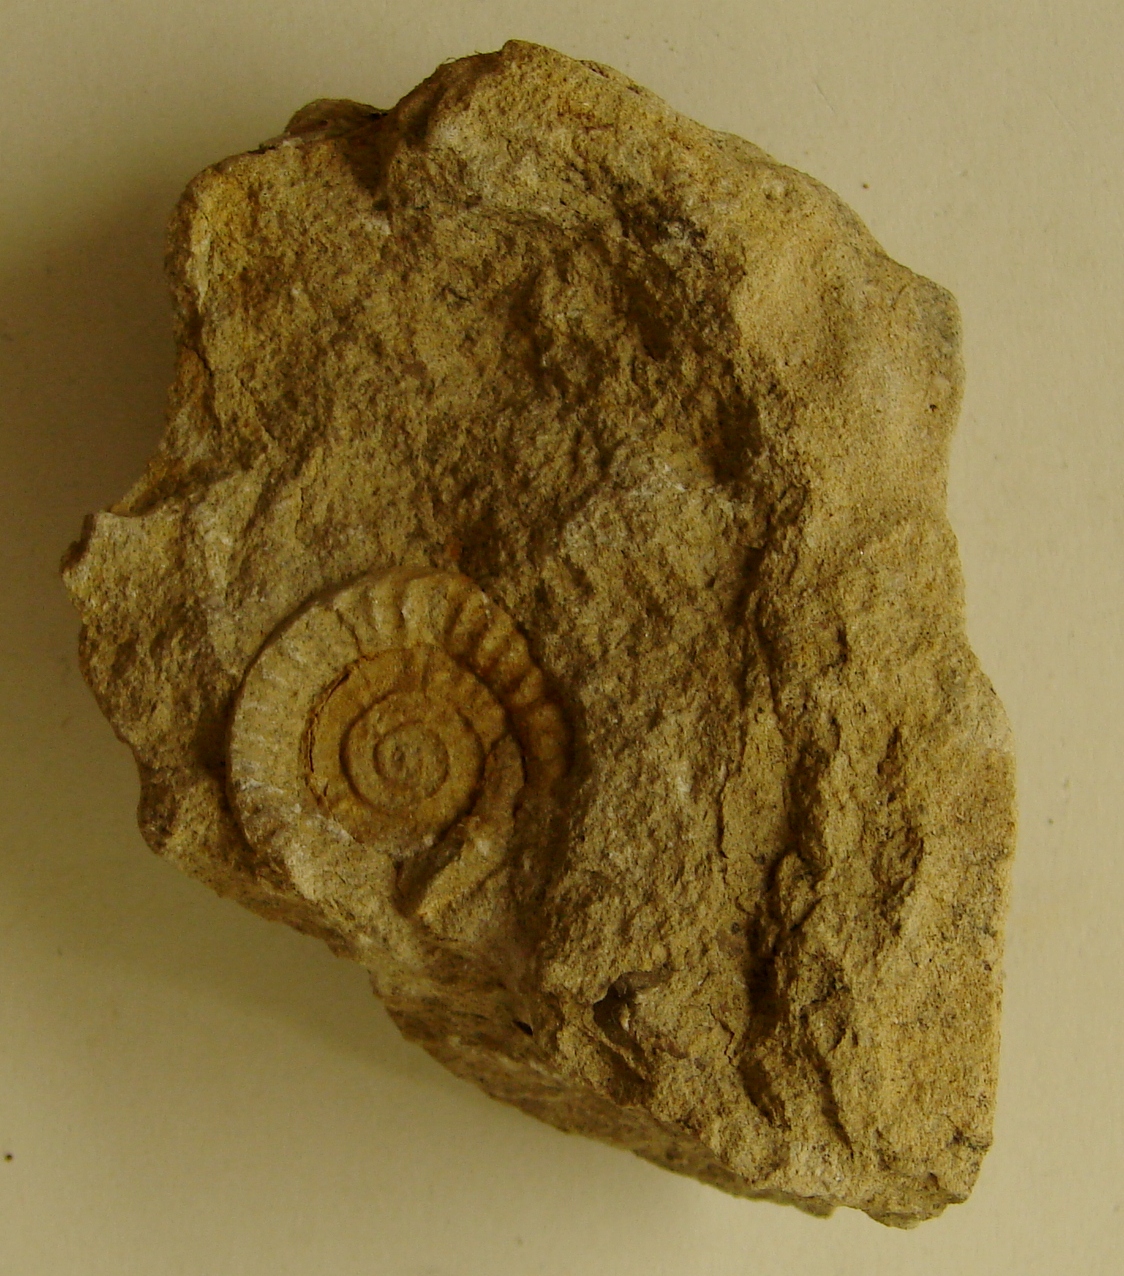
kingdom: Animalia
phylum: Mollusca
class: Cephalopoda
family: Psiloceratidae
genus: Caloceras
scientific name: Caloceras pirondi
